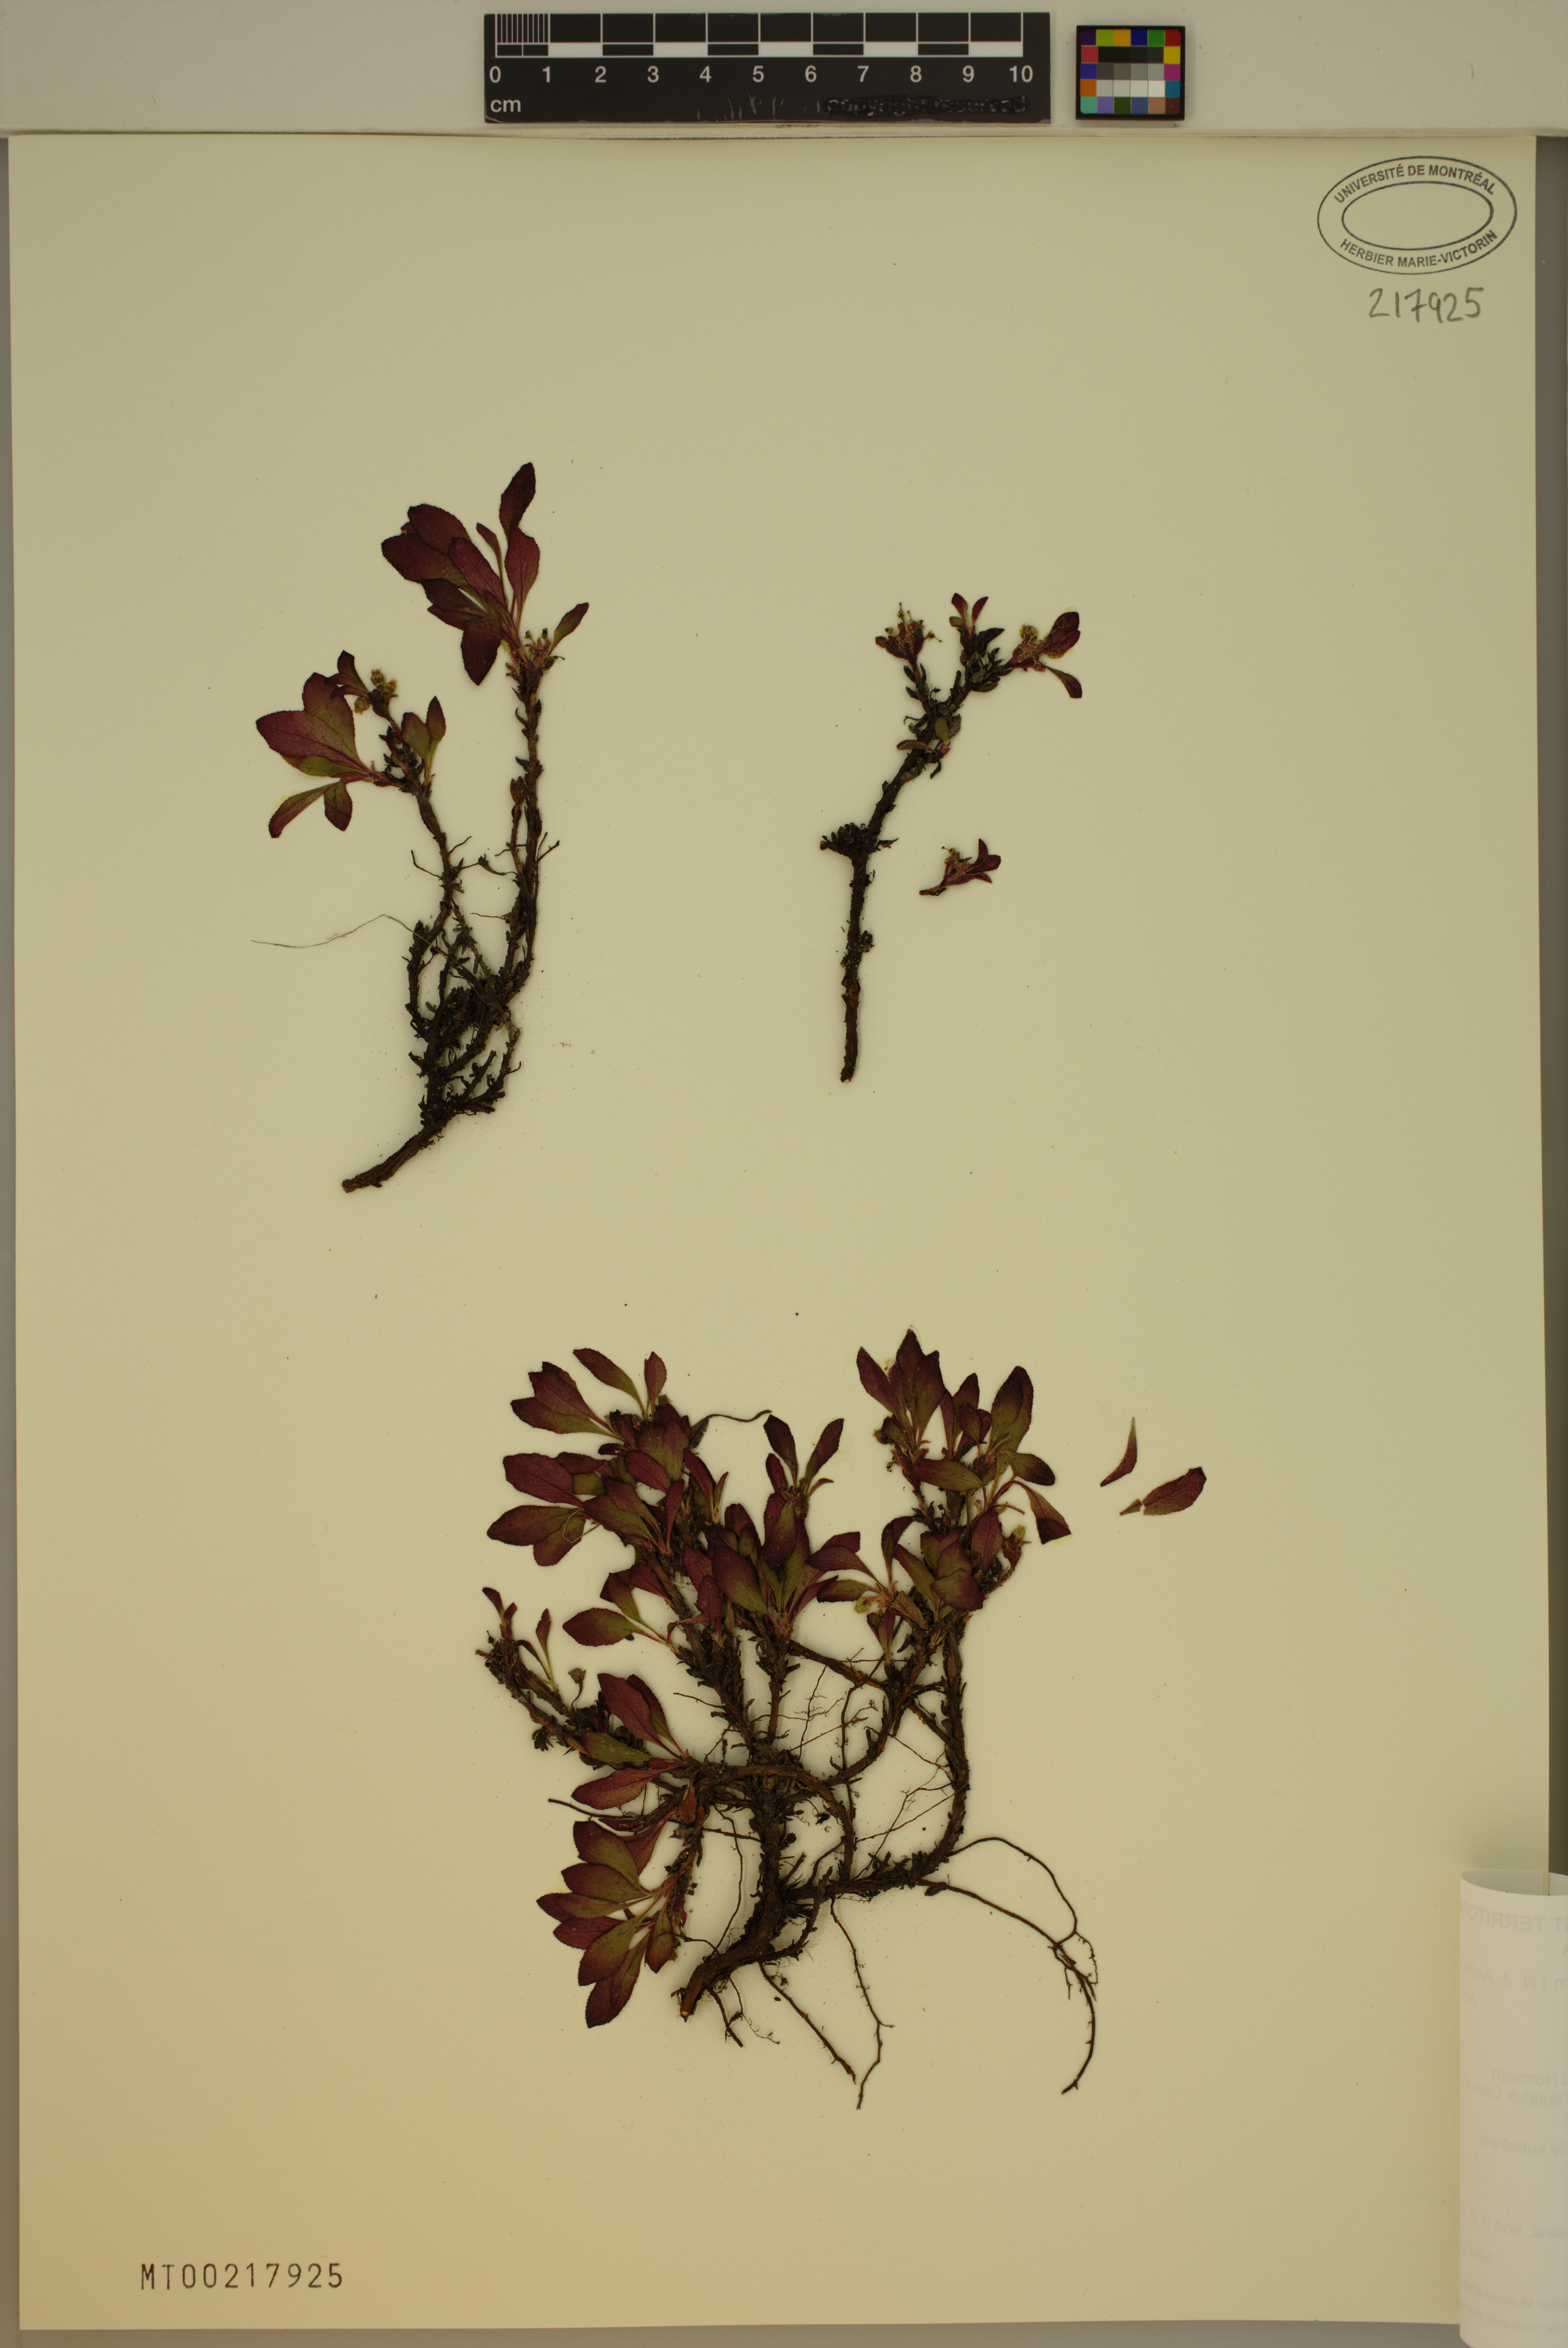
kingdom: Plantae
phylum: Tracheophyta
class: Magnoliopsida
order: Ericales
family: Ericaceae
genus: Arctostaphylos
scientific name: Arctostaphylos rubra
